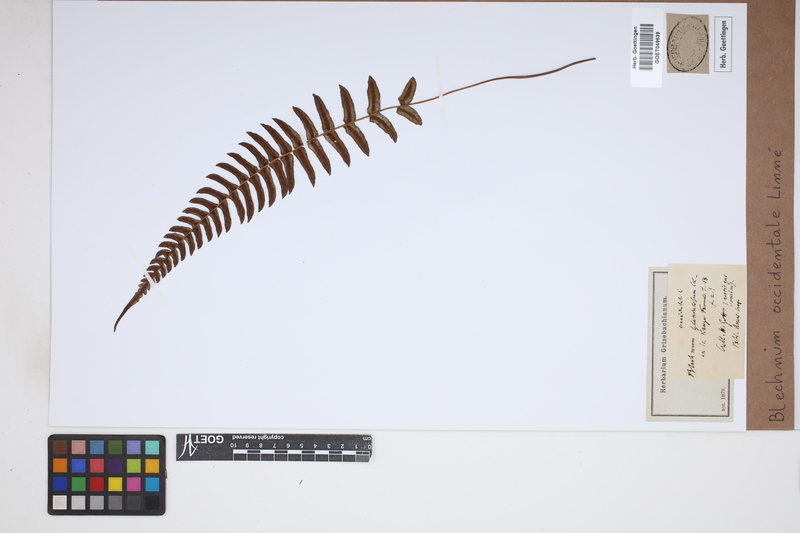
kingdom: Plantae
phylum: Tracheophyta
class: Polypodiopsida
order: Polypodiales
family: Blechnaceae
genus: Blechnum
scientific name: Blechnum occidentale
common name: Hammock fern
